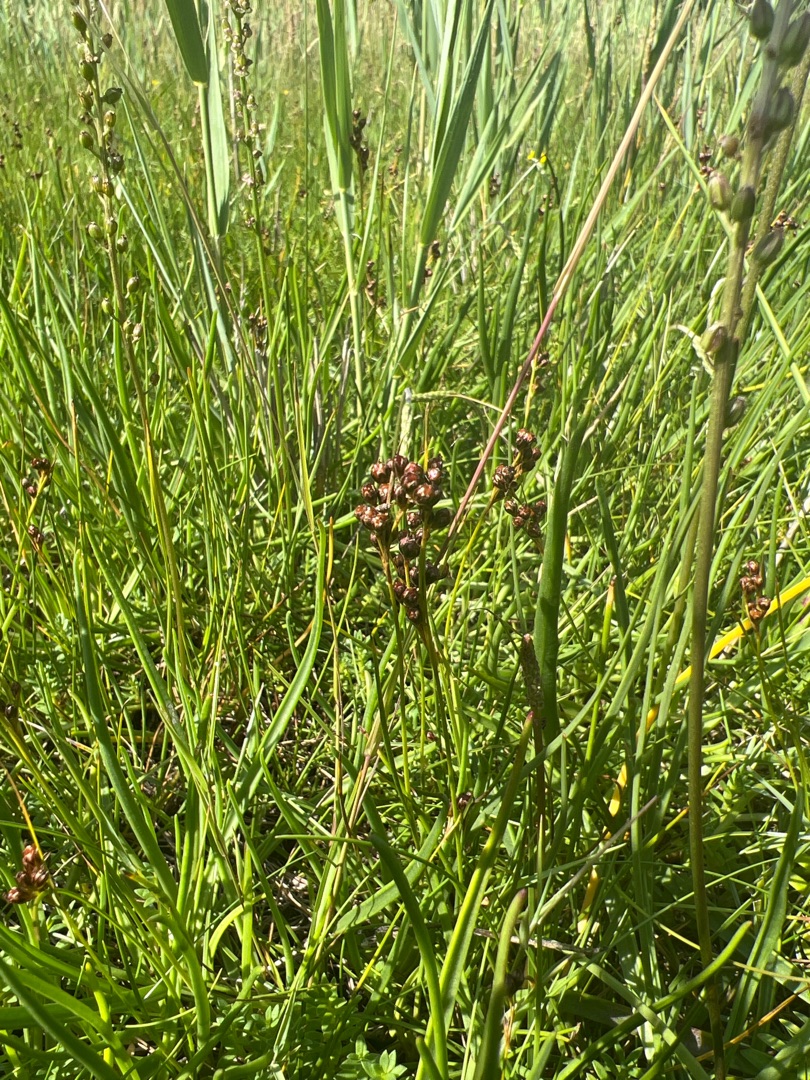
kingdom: Plantae
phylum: Tracheophyta
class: Liliopsida
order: Poales
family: Juncaceae
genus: Juncus
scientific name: Juncus gerardi
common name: Harril
